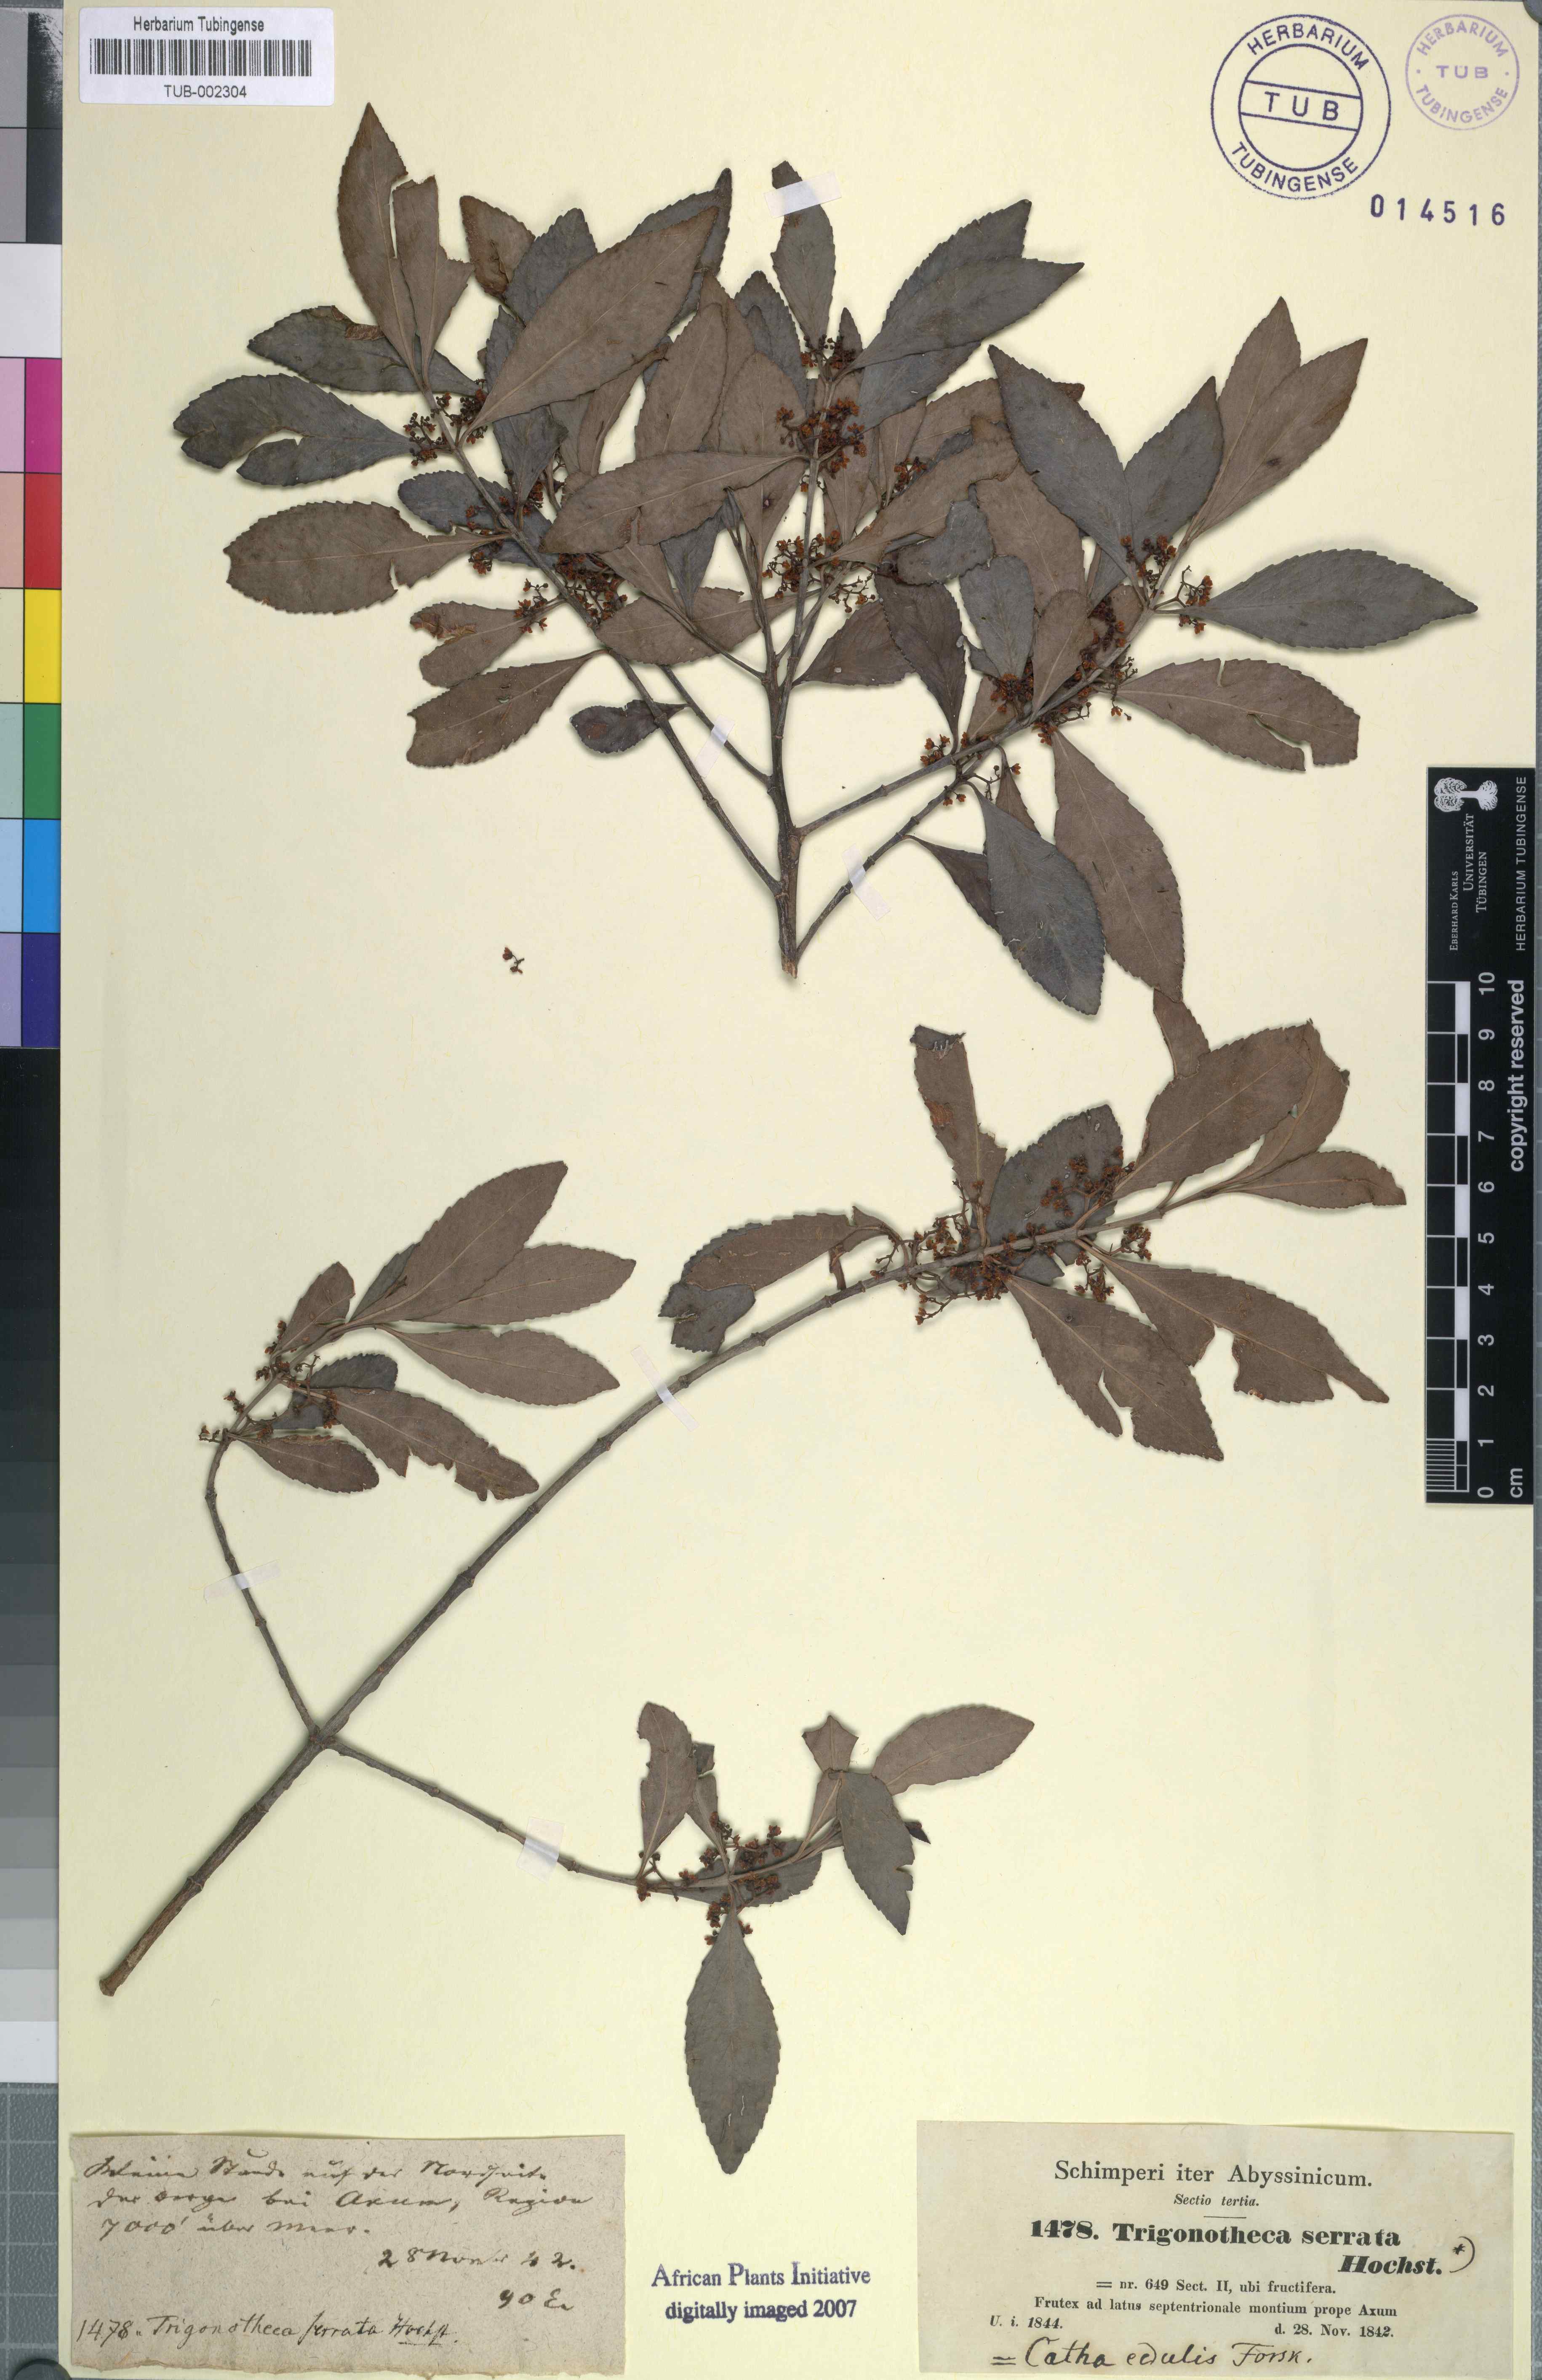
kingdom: Plantae
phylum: Tracheophyta
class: Magnoliopsida
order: Celastrales
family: Celastraceae
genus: Catha
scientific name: Catha edulis
